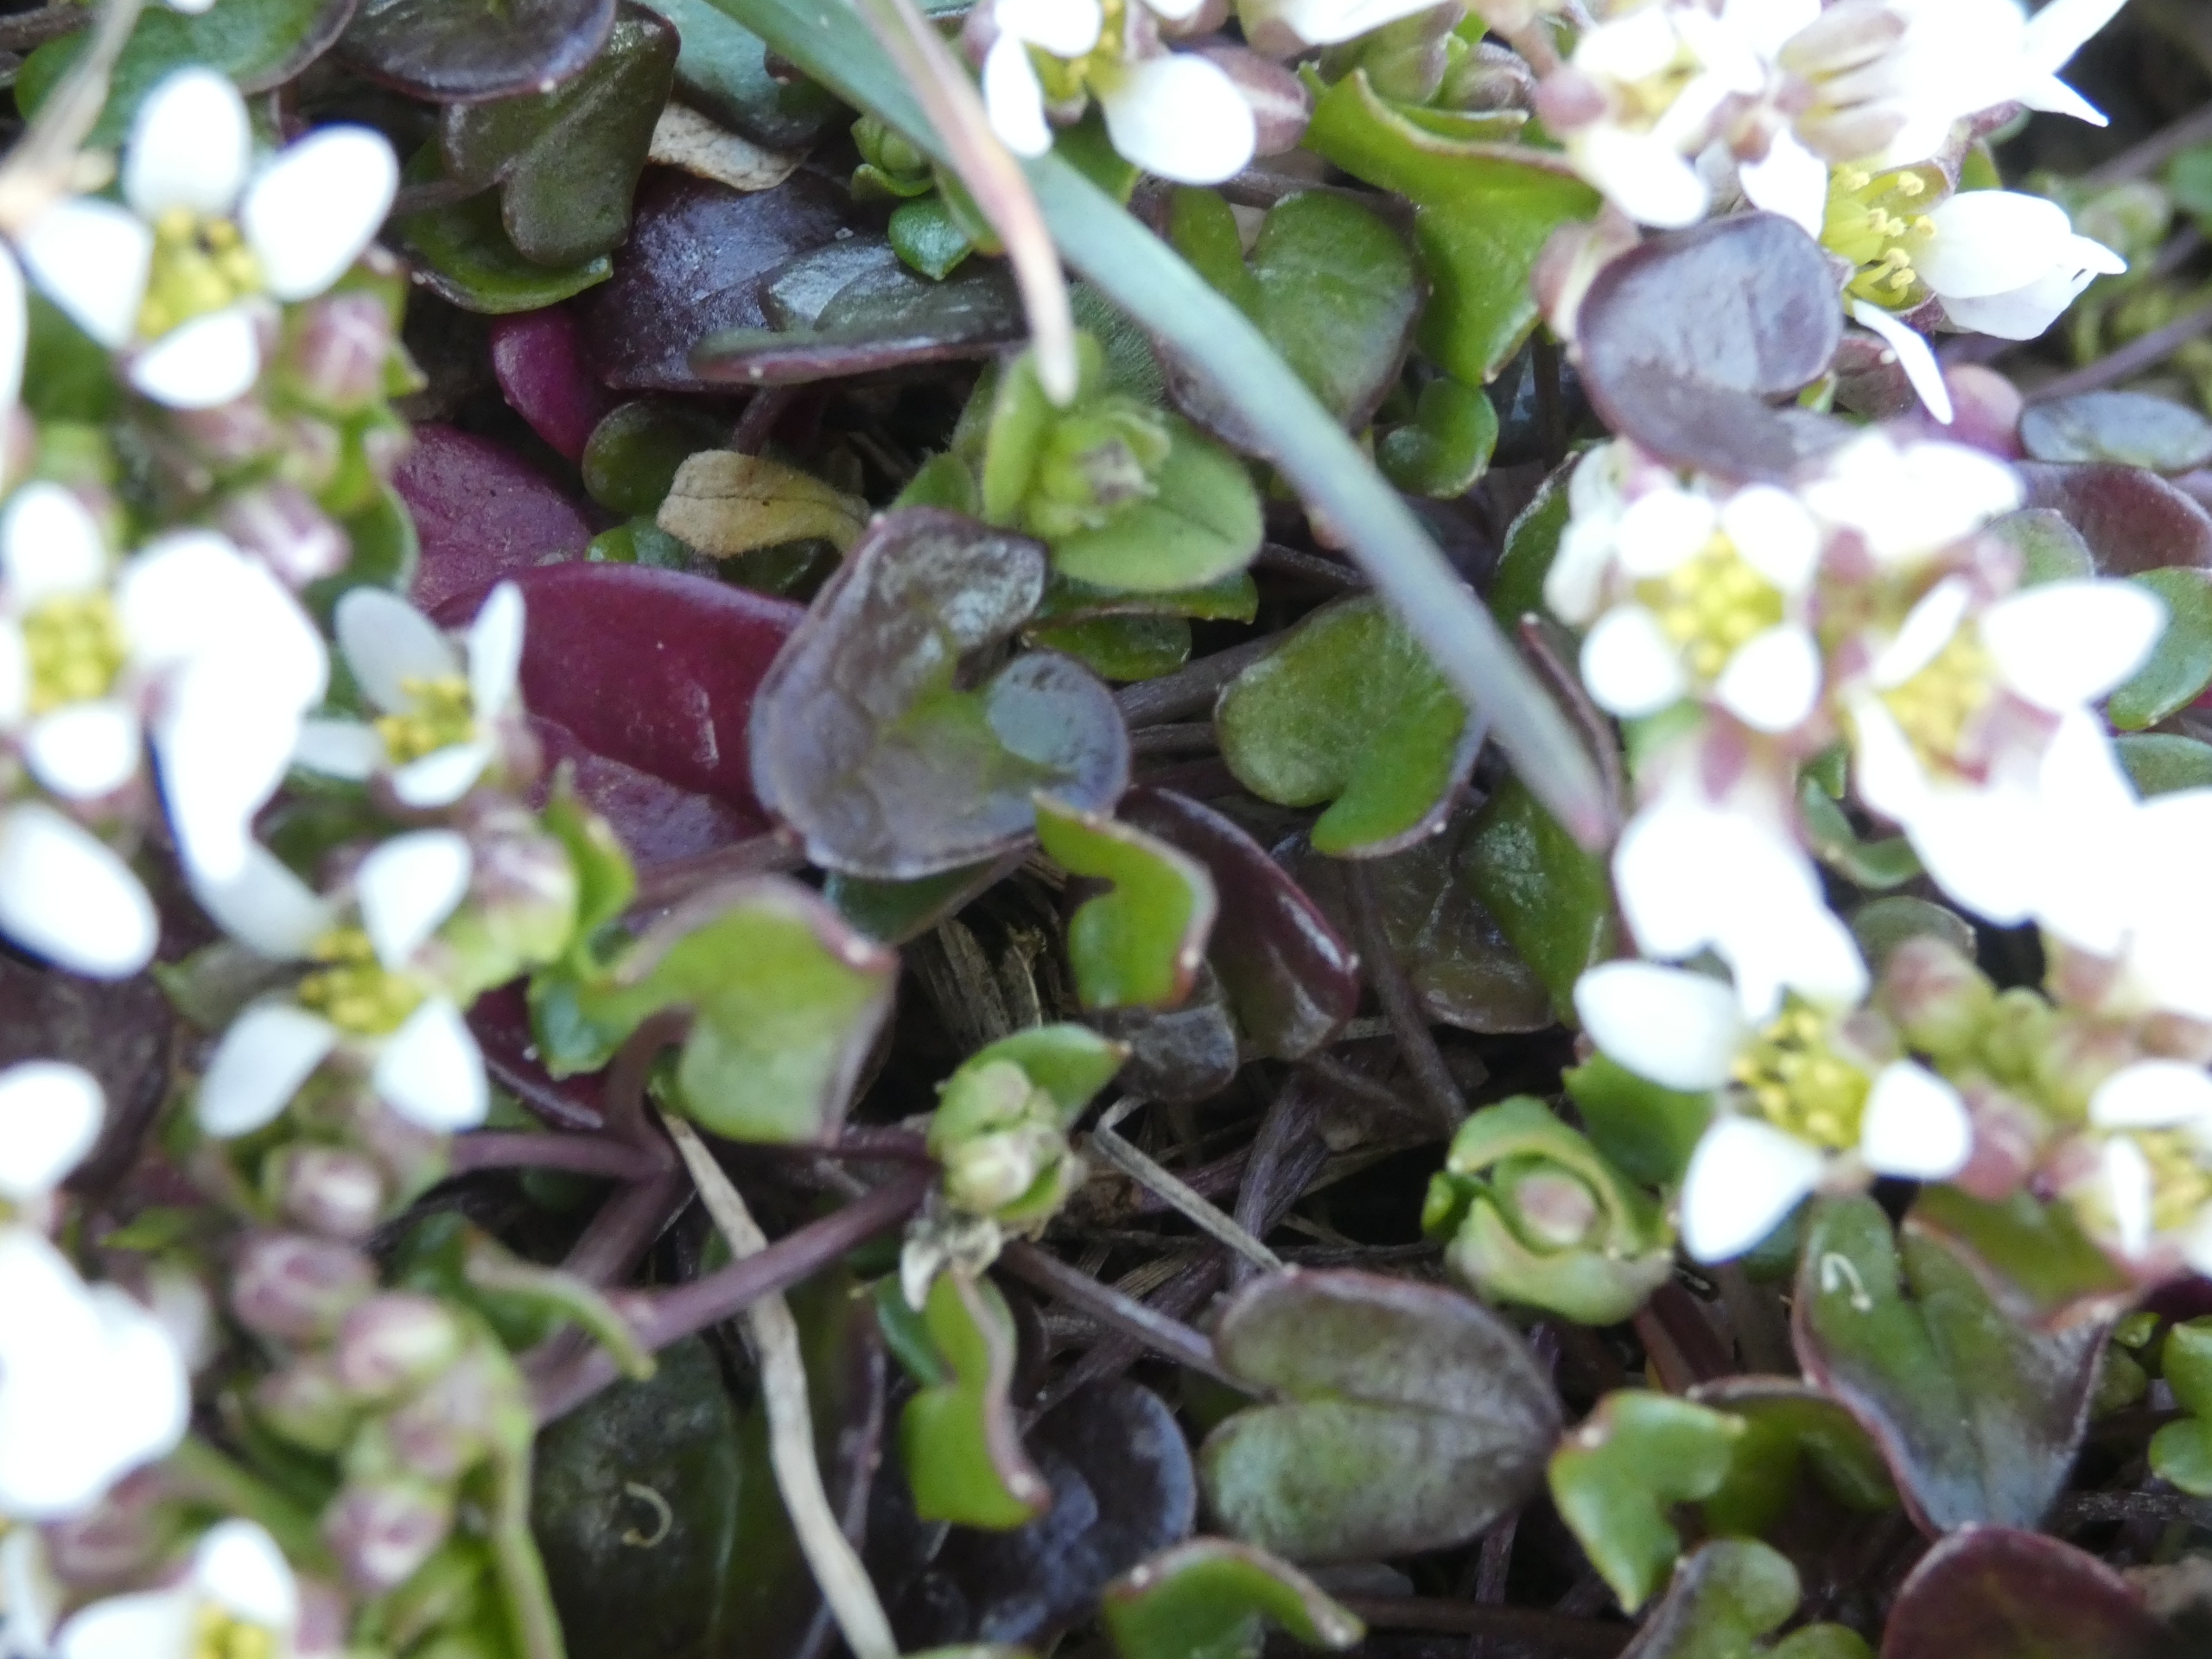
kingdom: Plantae
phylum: Tracheophyta
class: Magnoliopsida
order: Brassicales
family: Brassicaceae
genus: Cochlearia
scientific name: Cochlearia officinalis
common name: Læge-kokleare (underart)
